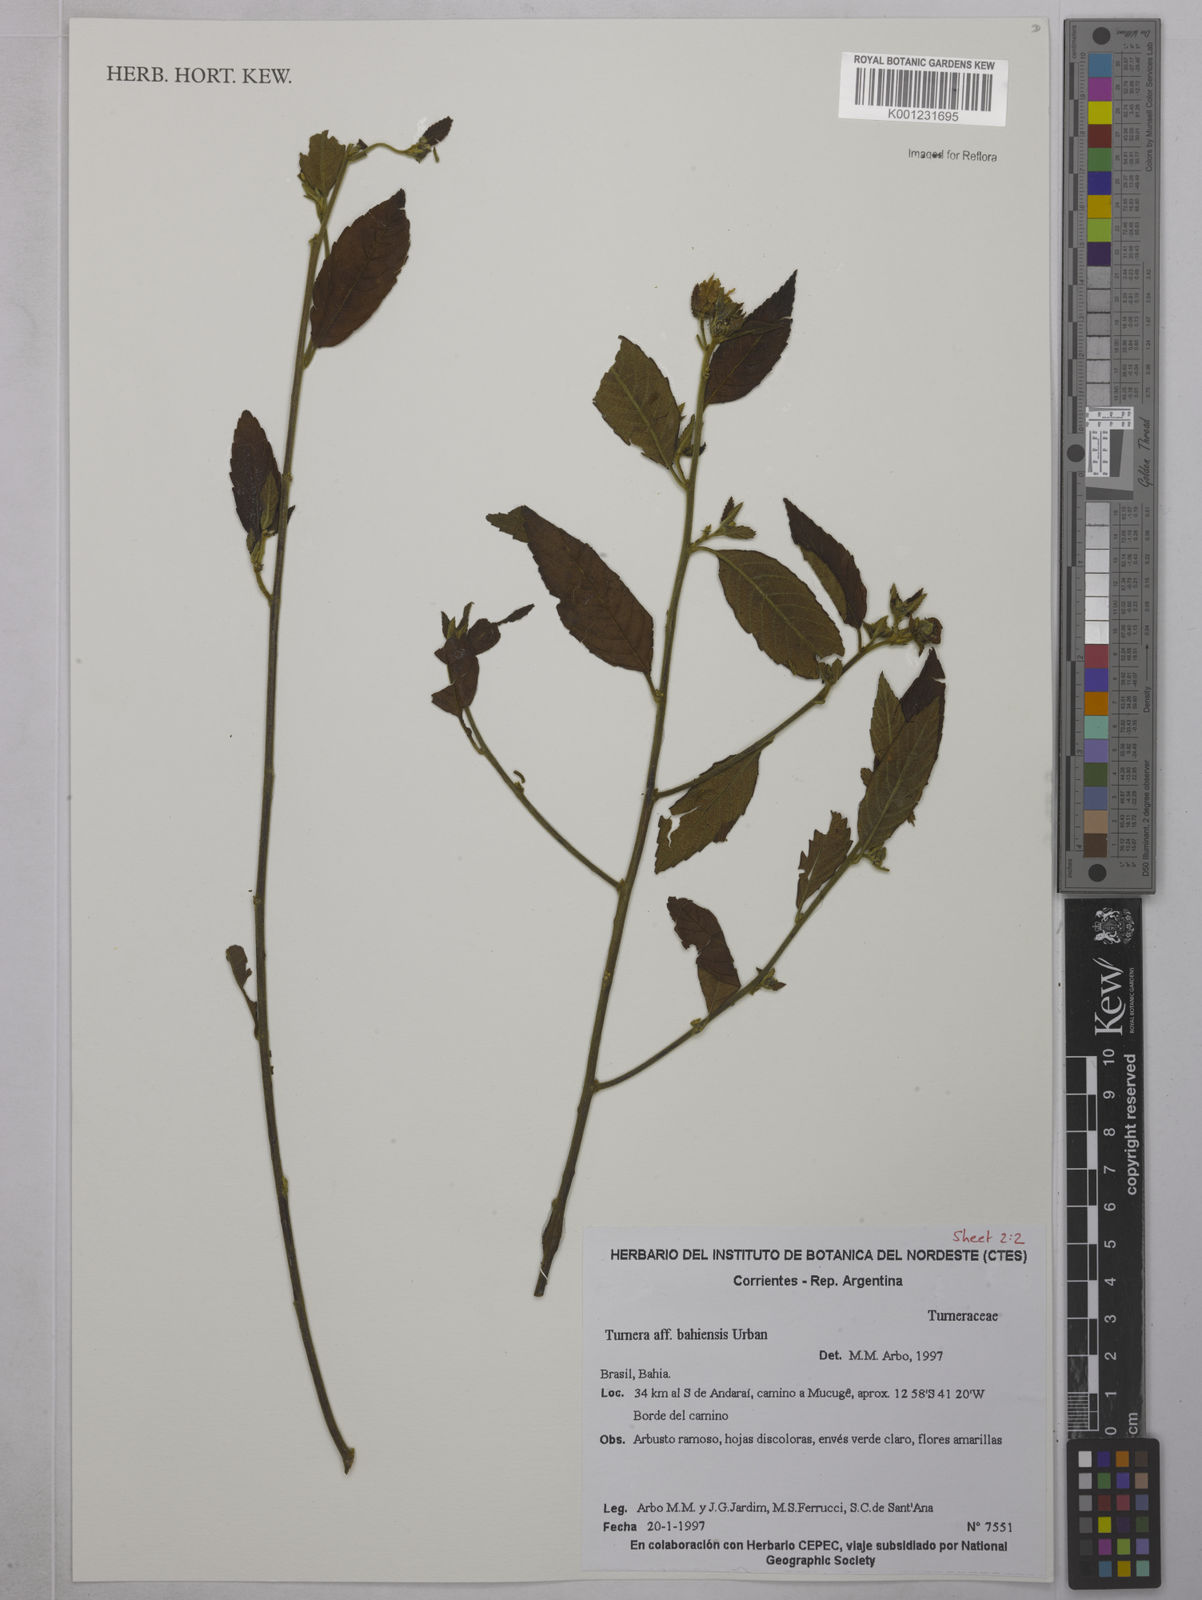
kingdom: Plantae
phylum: Tracheophyta
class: Magnoliopsida
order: Malpighiales
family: Turneraceae
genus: Turnera
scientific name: Turnera bahiensis
